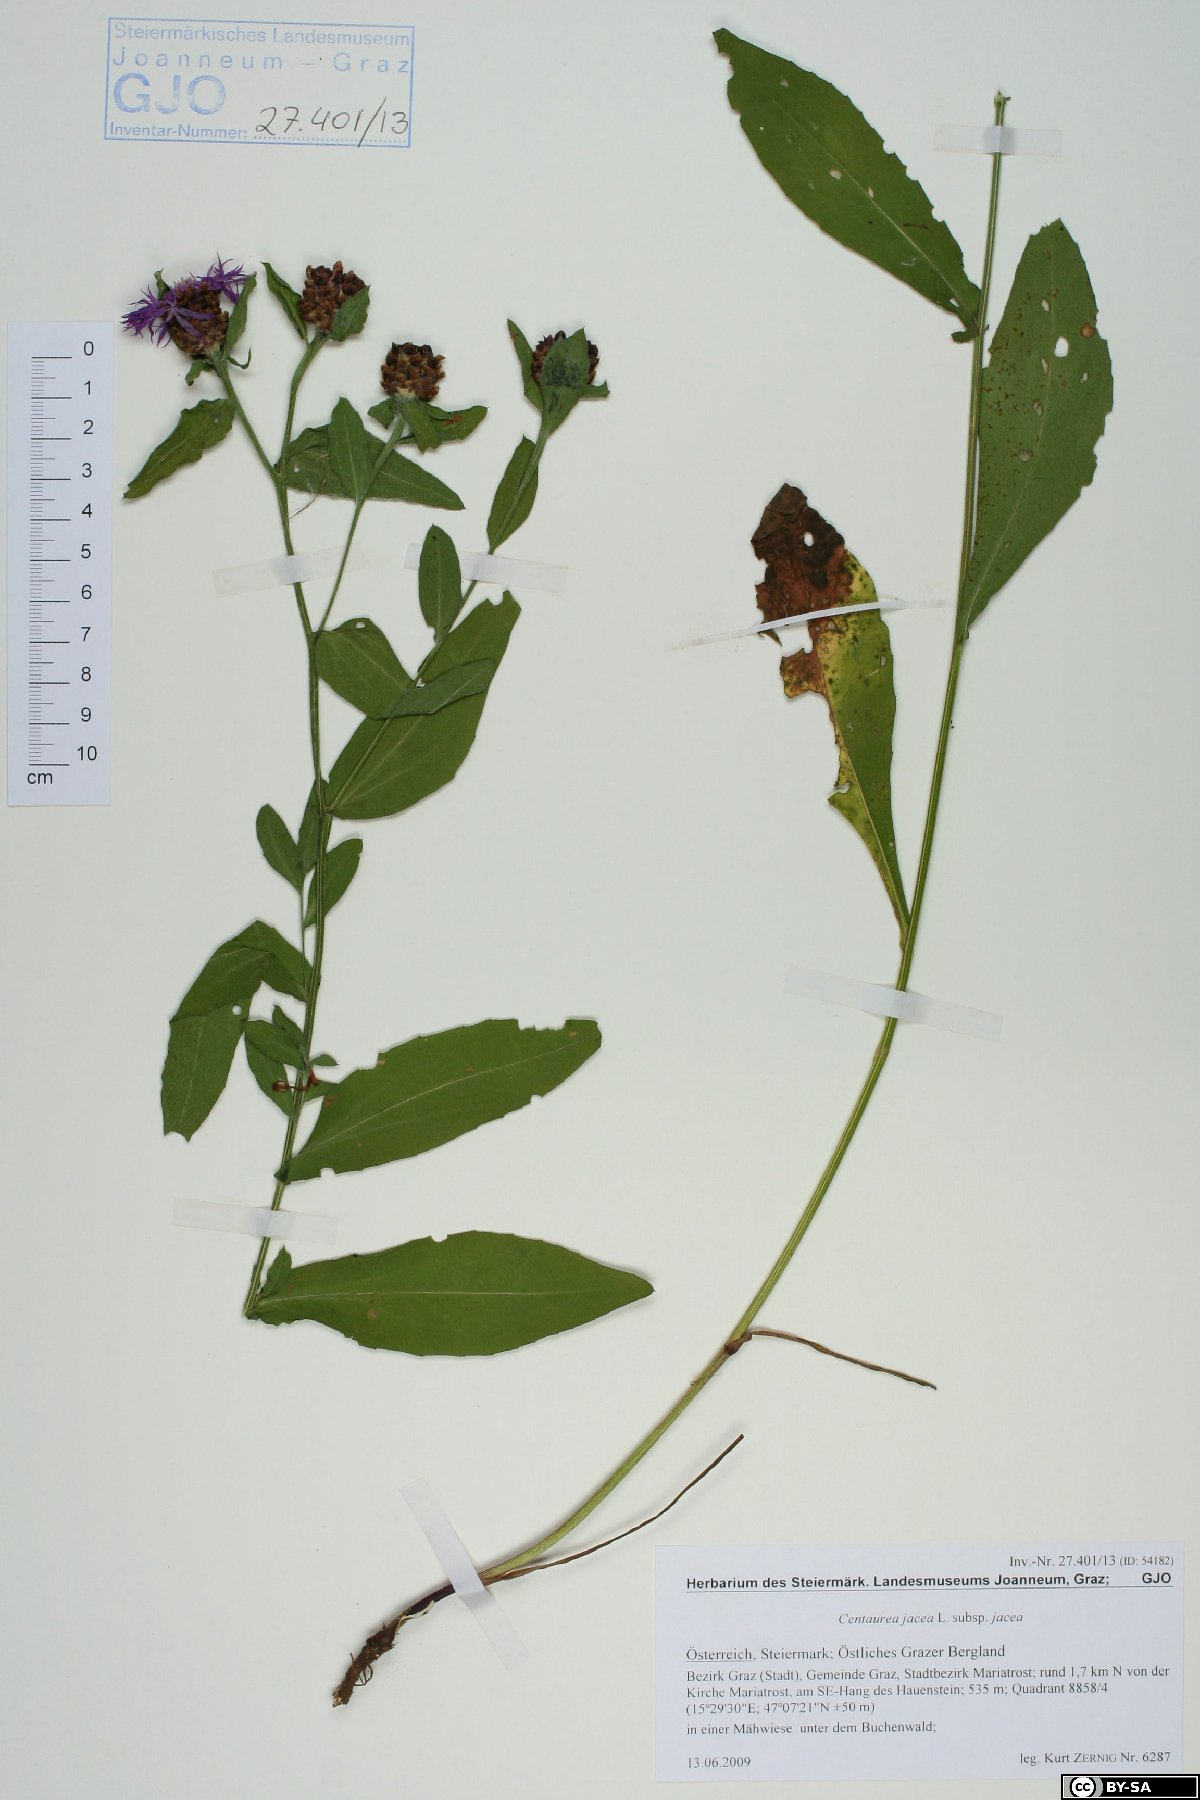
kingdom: Plantae
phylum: Tracheophyta
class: Magnoliopsida
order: Asterales
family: Asteraceae
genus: Centaurea
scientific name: Centaurea jacea
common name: Brown knapweed
